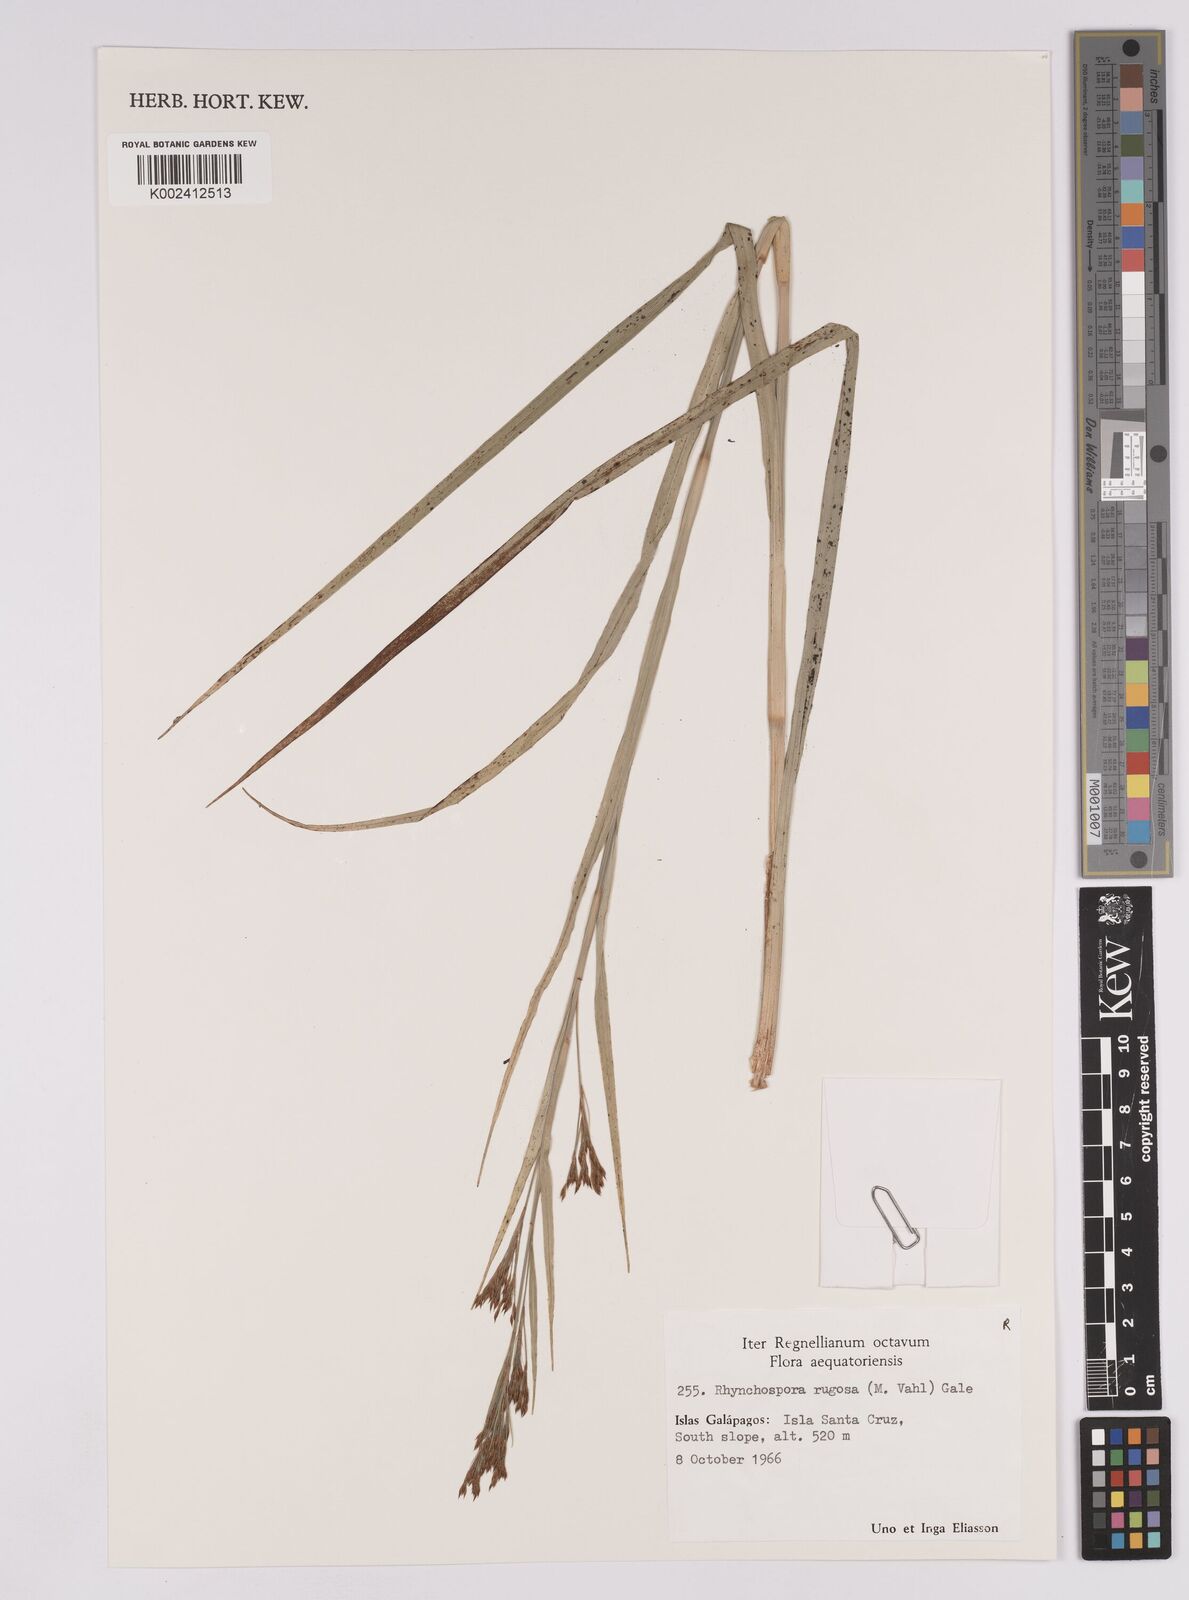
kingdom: Plantae
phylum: Tracheophyta
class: Liliopsida
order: Poales
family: Cyperaceae
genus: Rhynchospora
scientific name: Rhynchospora rugosa
